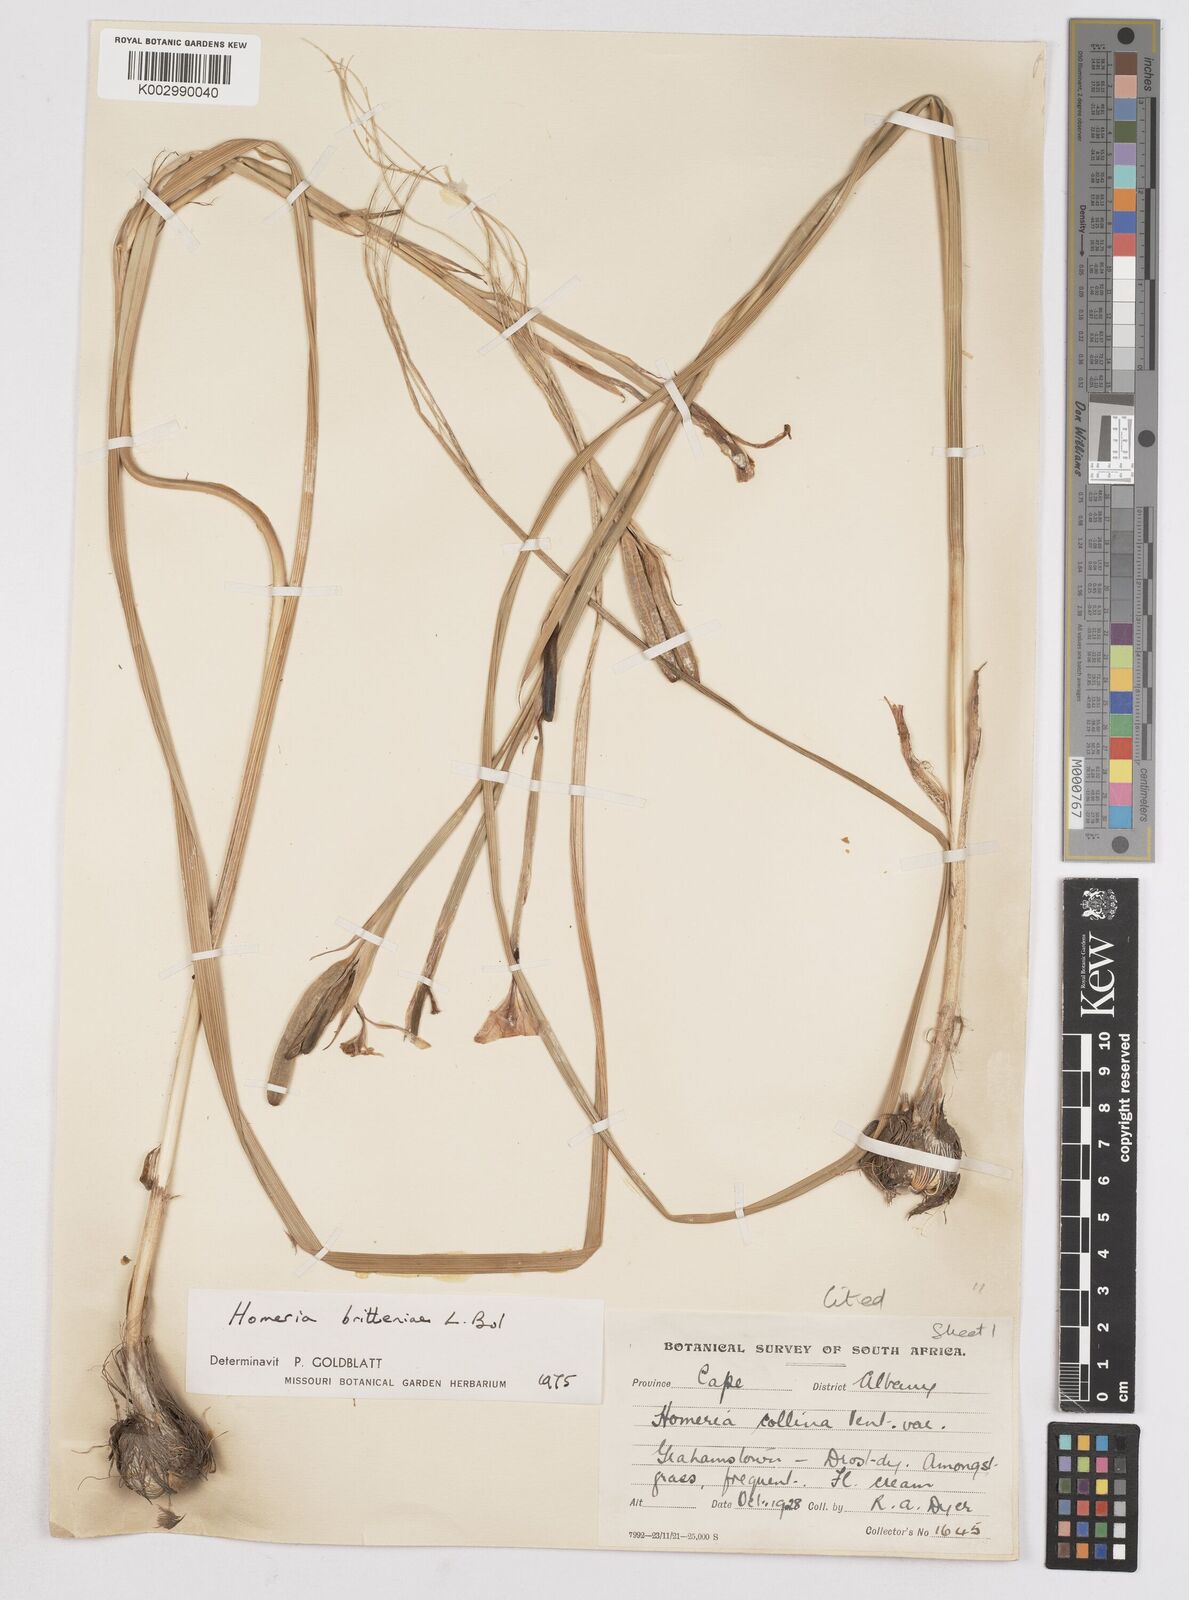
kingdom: Plantae
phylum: Tracheophyta
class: Liliopsida
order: Asparagales
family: Iridaceae
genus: Moraea
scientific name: Moraea britteniae
